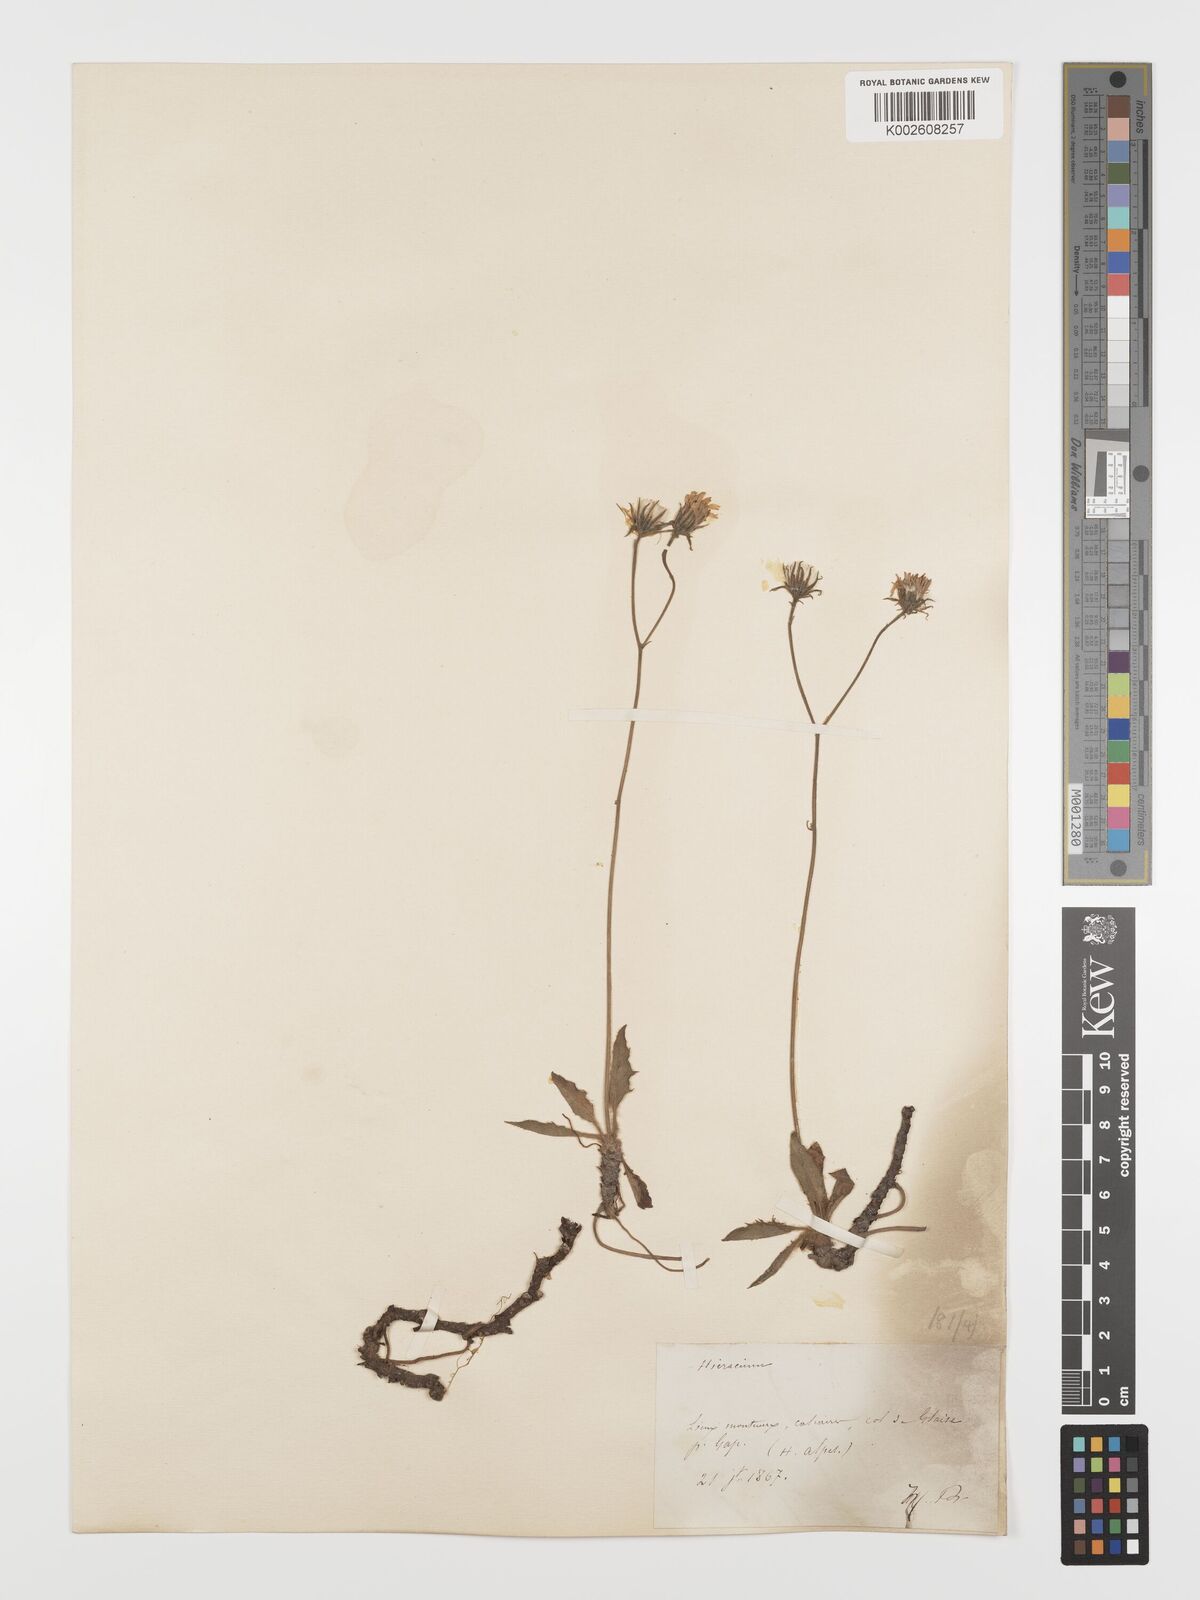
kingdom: Plantae
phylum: Tracheophyta
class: Magnoliopsida
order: Asterales
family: Asteraceae
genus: Hieracium
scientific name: Hieracium
